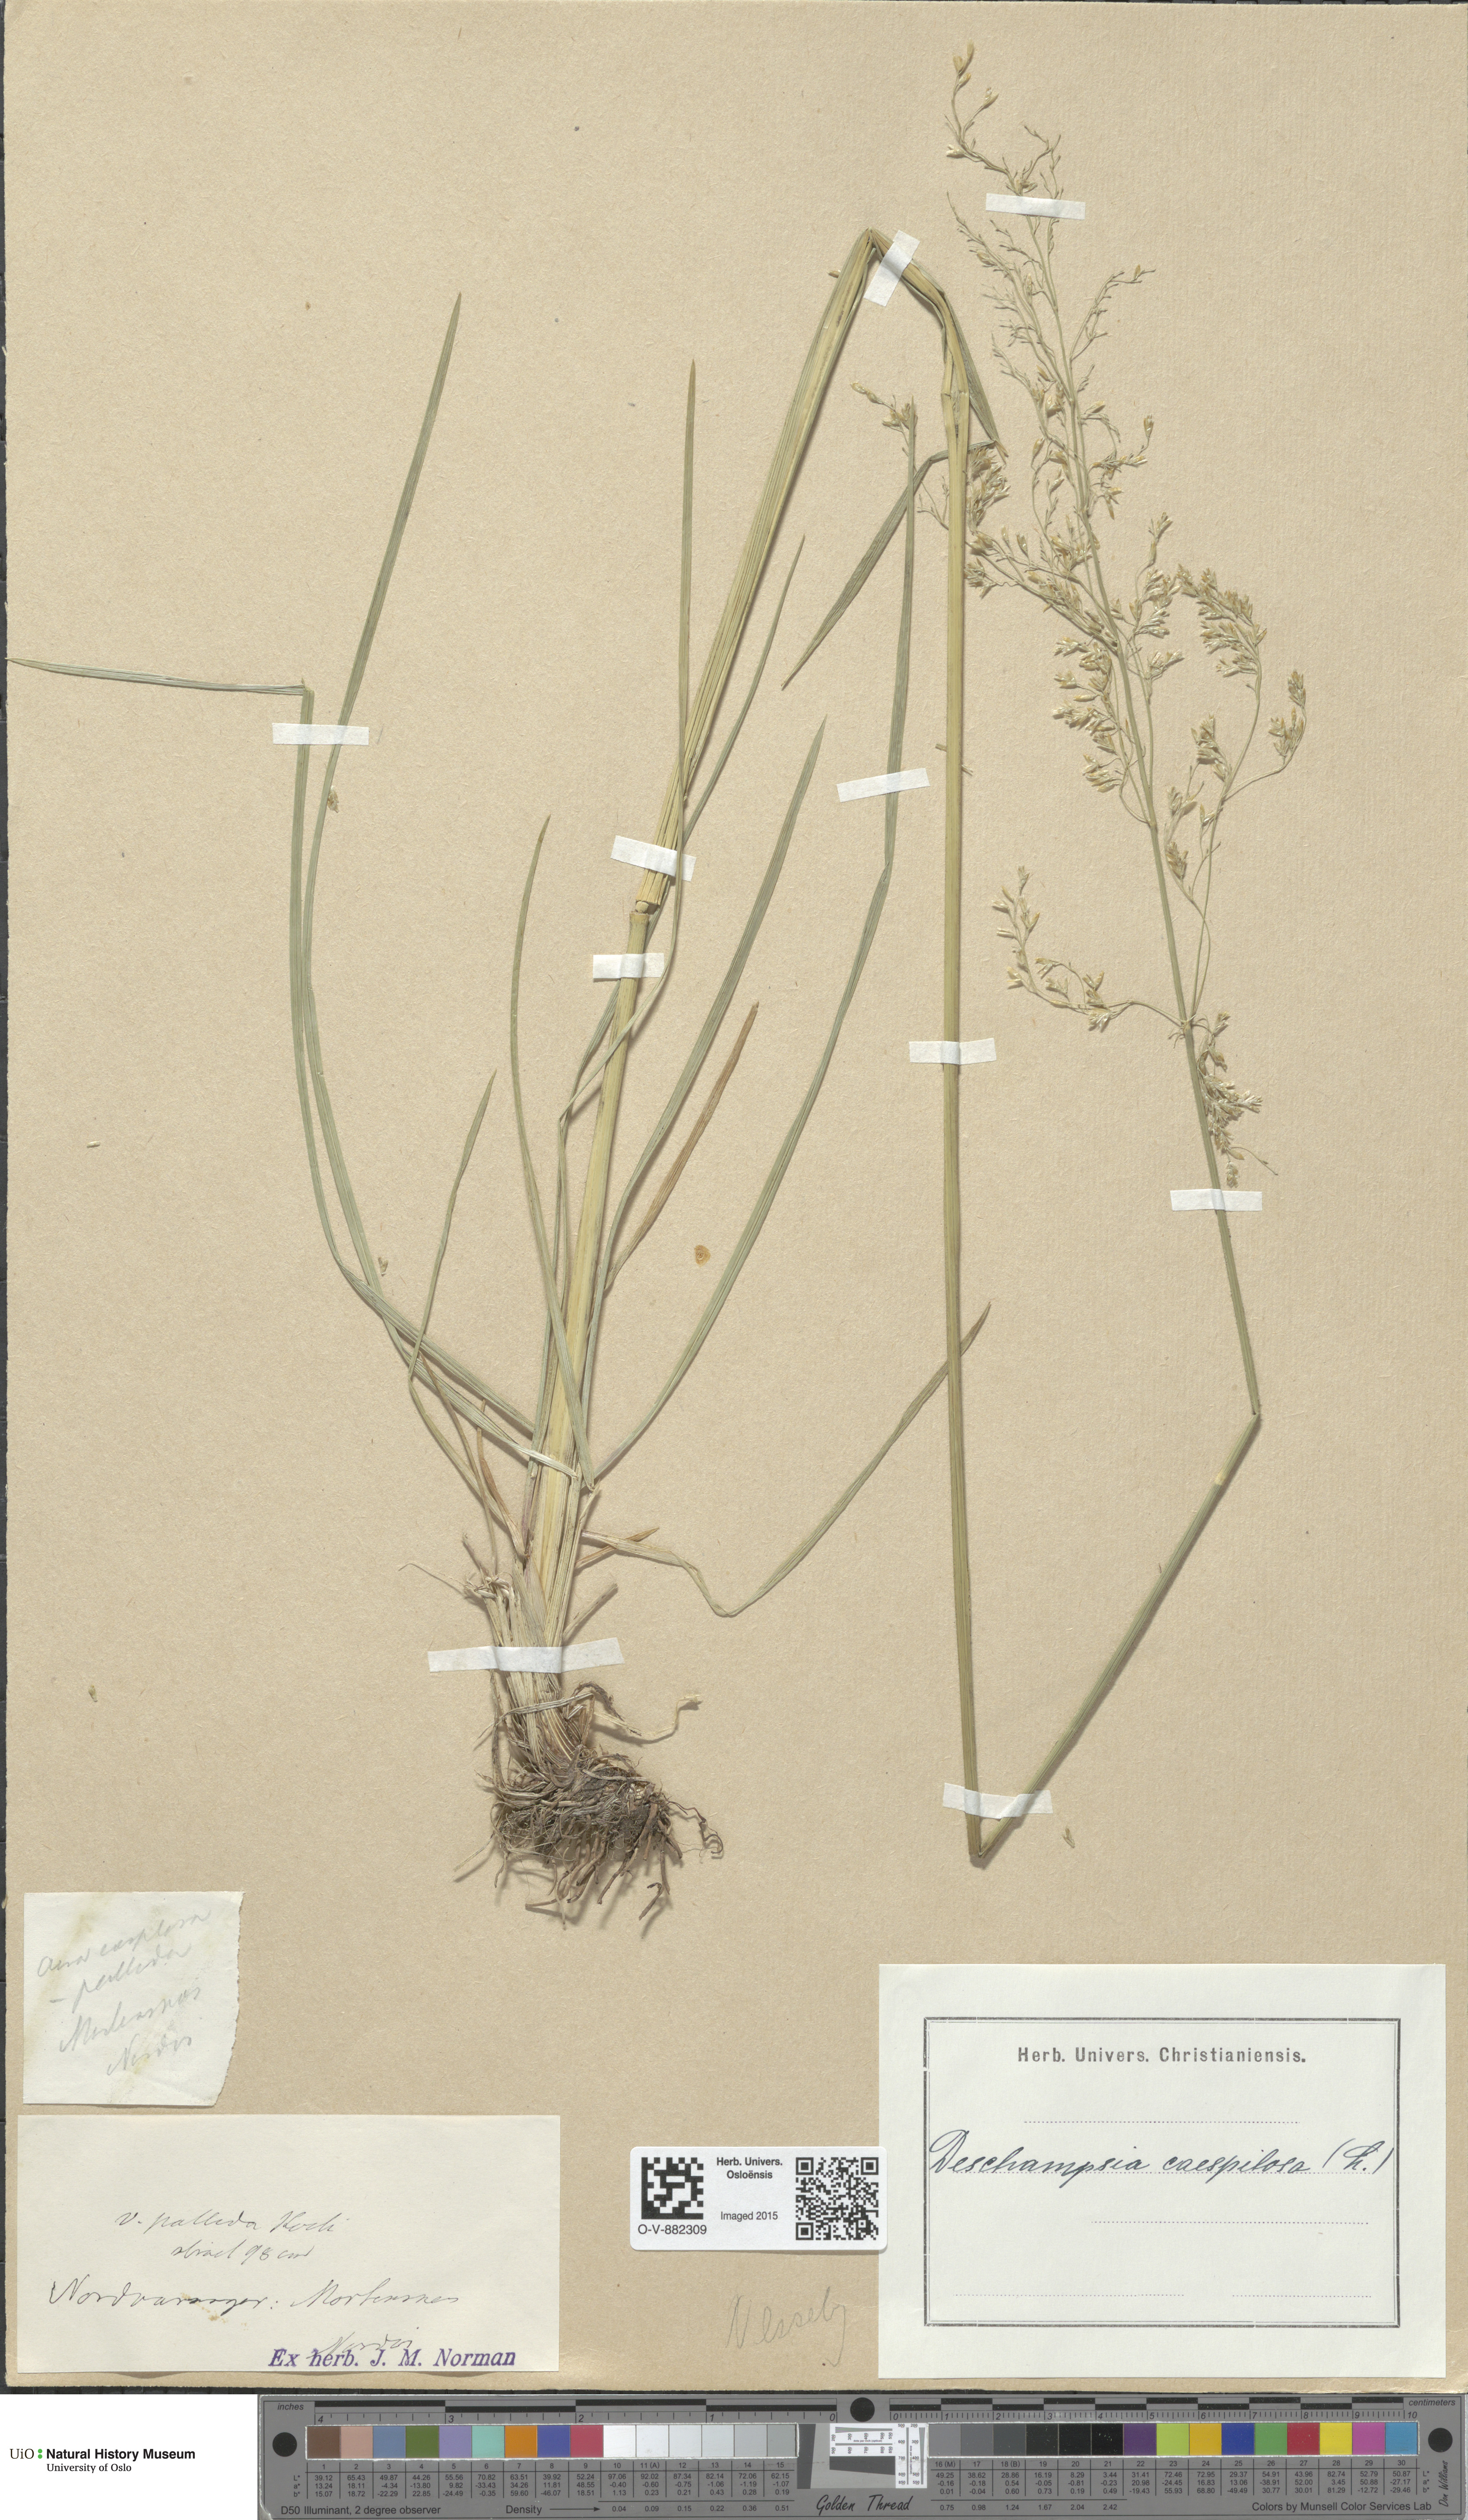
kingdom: Plantae
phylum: Tracheophyta
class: Liliopsida
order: Poales
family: Poaceae
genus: Deschampsia
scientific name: Deschampsia cespitosa
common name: Tufted hair-grass
